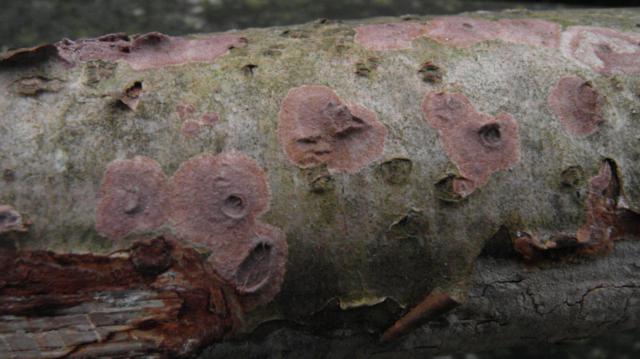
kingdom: Fungi
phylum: Basidiomycota
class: Agaricomycetes
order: Hymenochaetales
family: Hymenochaetaceae
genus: Hydnoporia
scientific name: Hydnoporia corrugata
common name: sprække-ruslædersvamp
